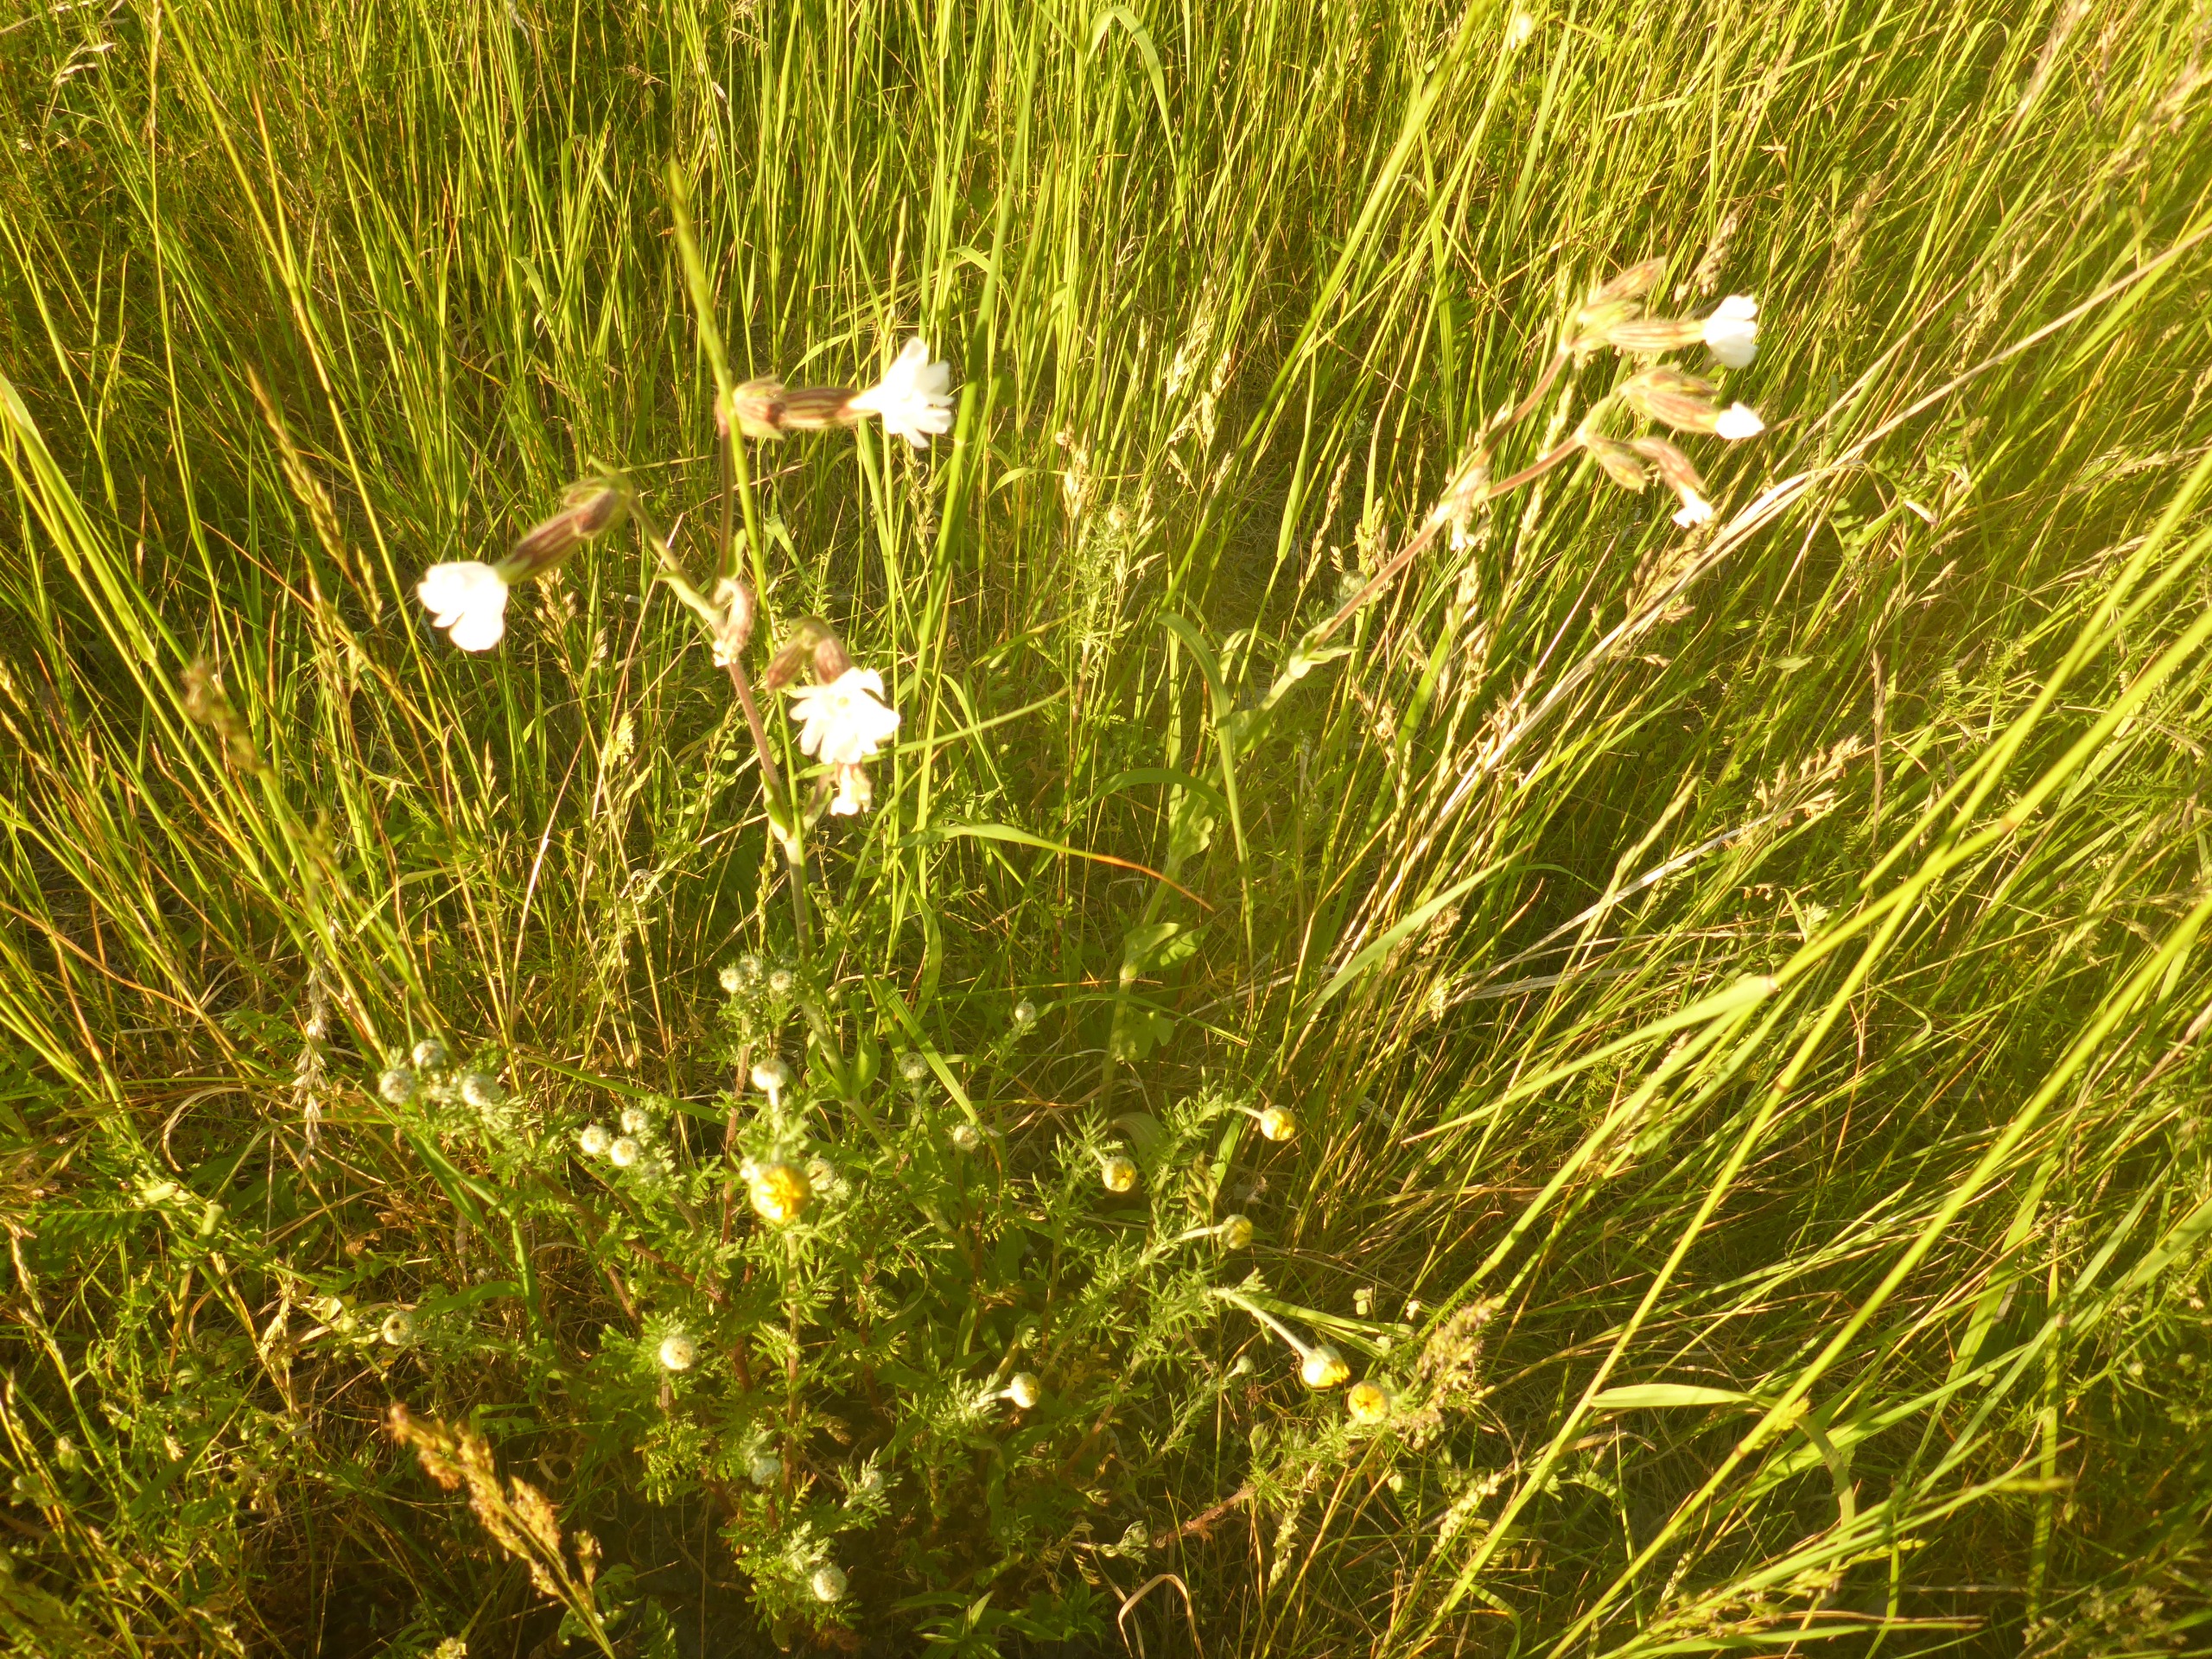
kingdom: Plantae
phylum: Tracheophyta
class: Magnoliopsida
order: Caryophyllales
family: Caryophyllaceae
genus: Silene
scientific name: Silene latifolia
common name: Aftenpragtstjerne
